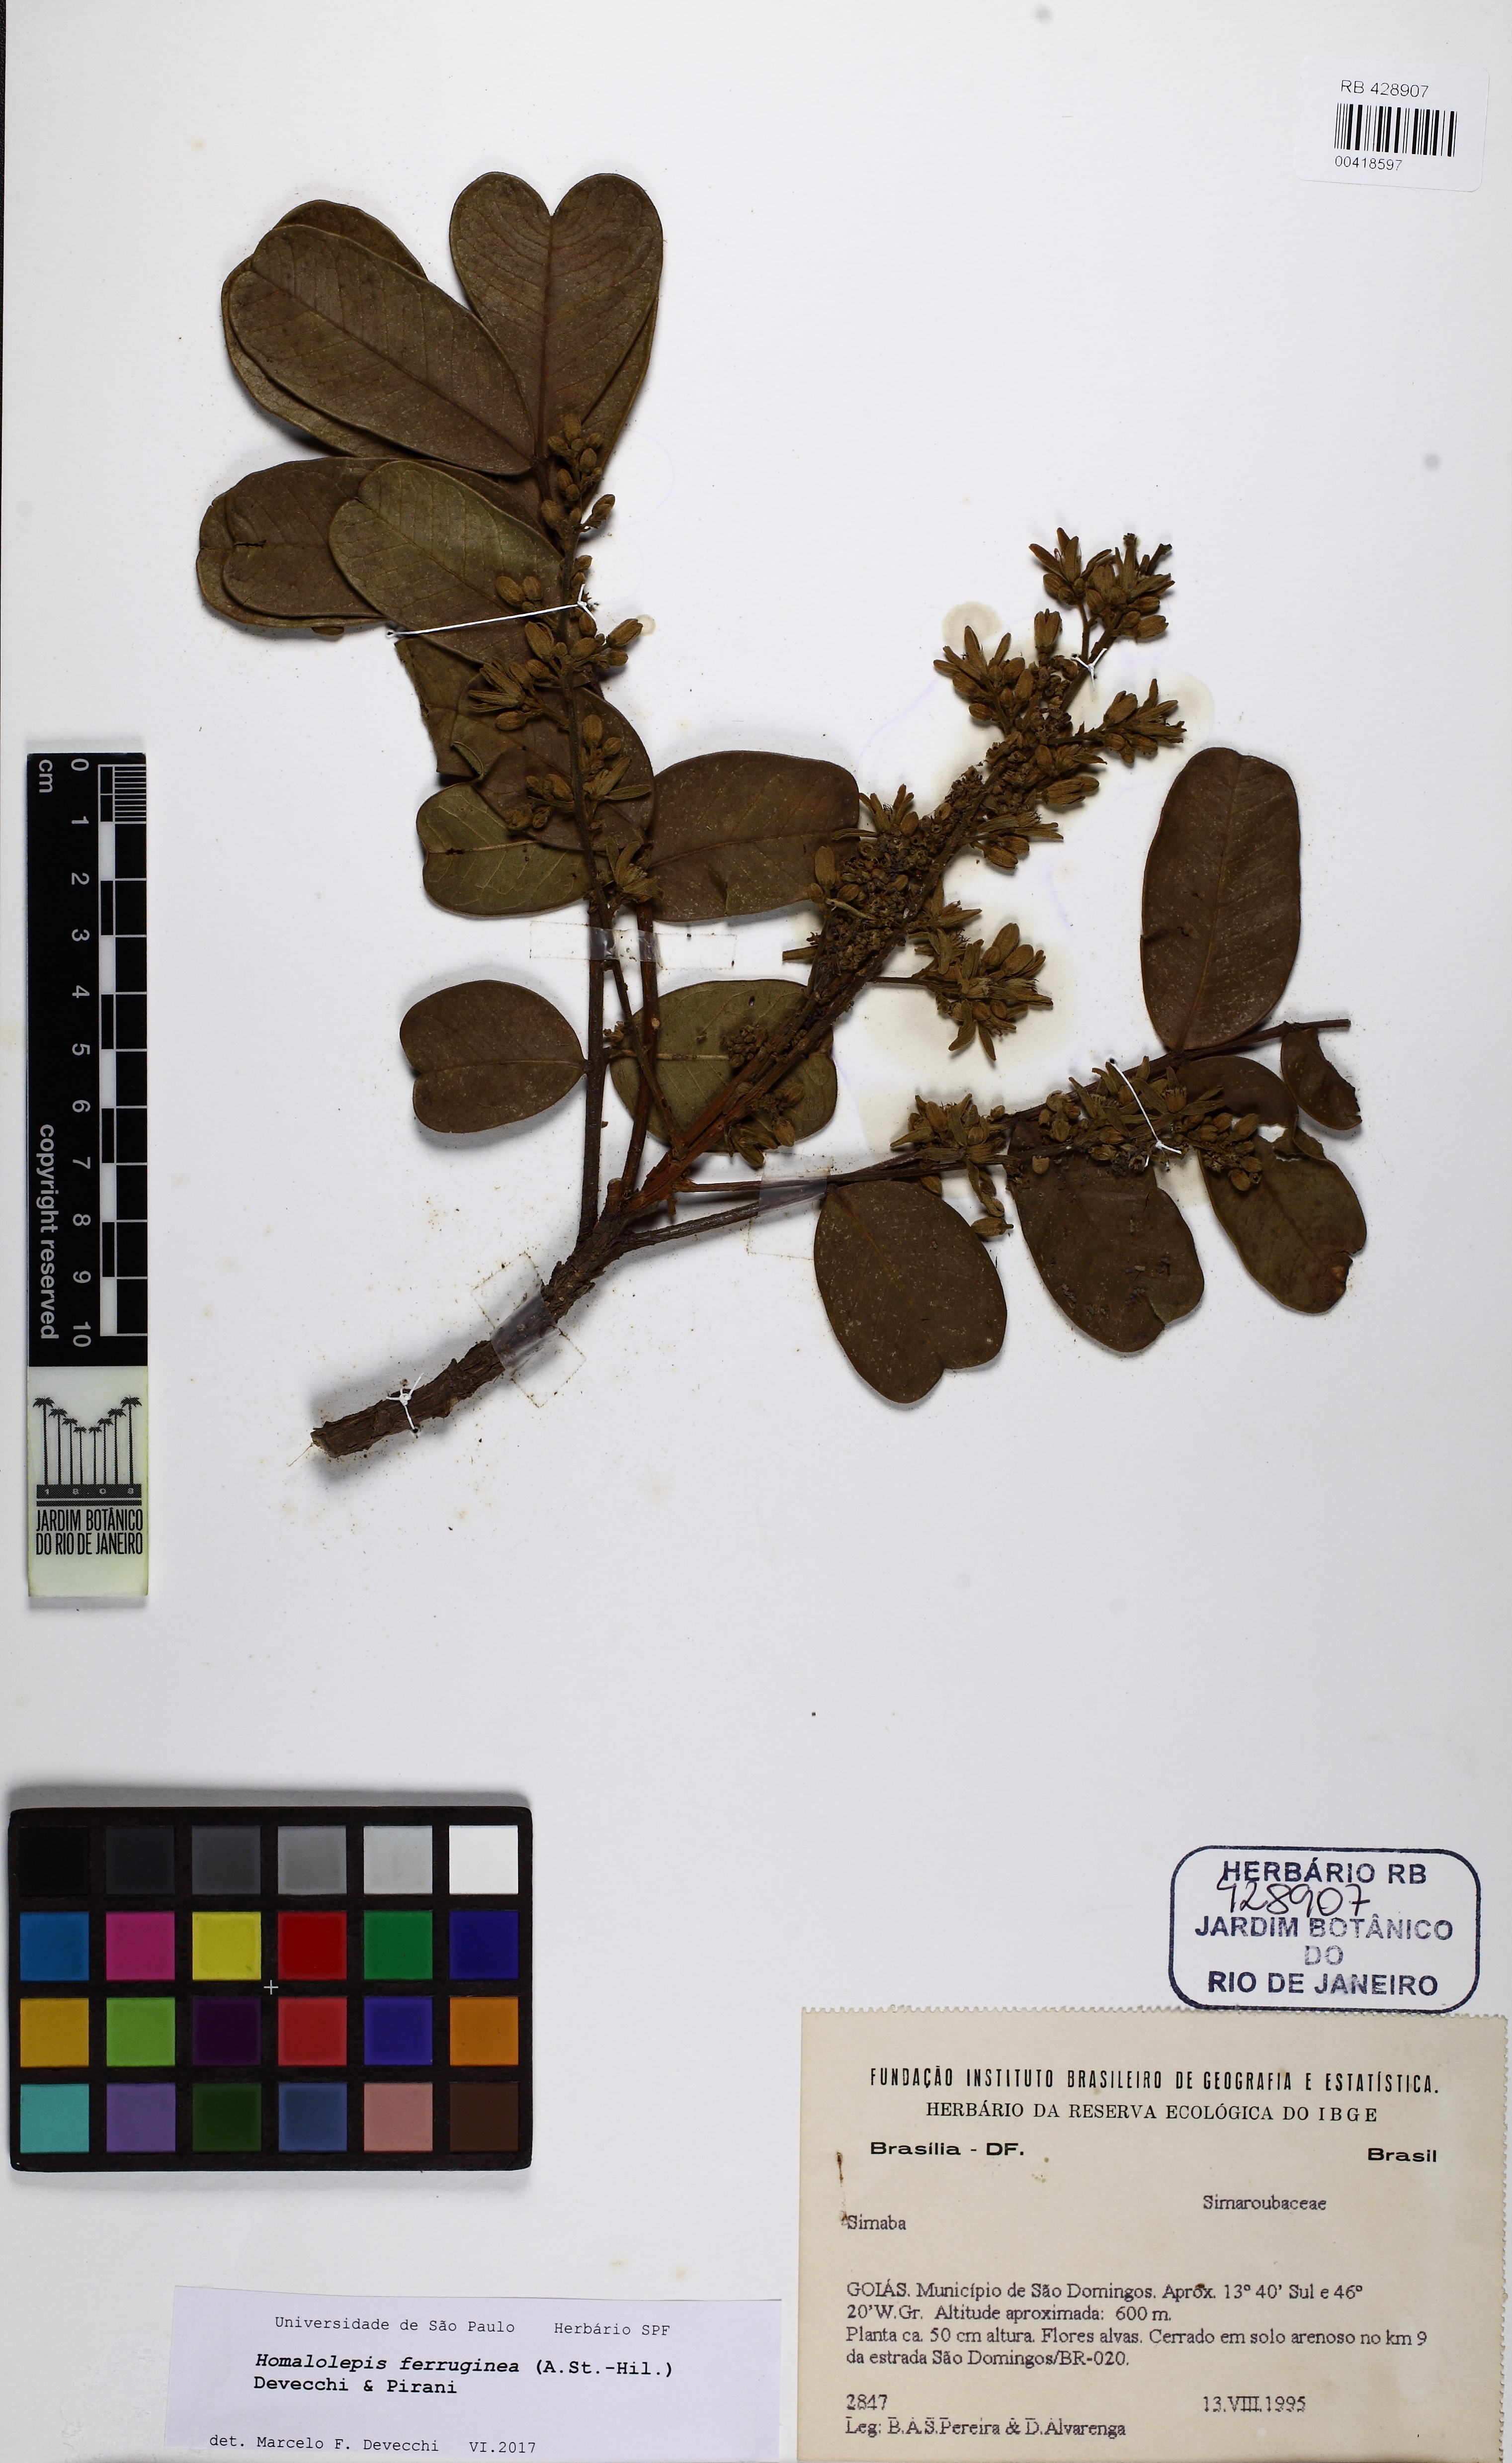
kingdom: Plantae
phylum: Tracheophyta
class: Magnoliopsida
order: Sapindales
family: Simaroubaceae
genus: Homalolepis
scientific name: Homalolepis ferruginea
